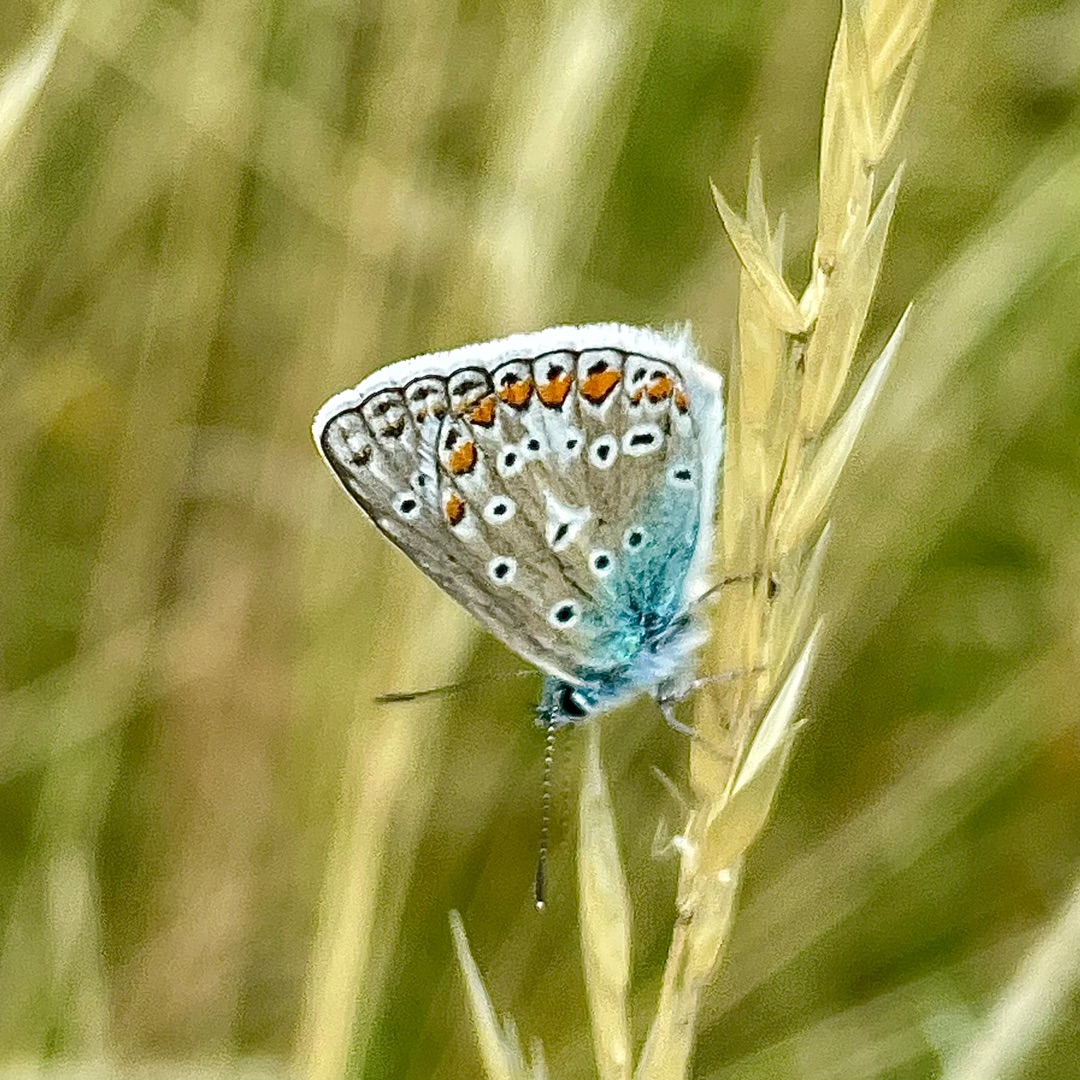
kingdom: Animalia
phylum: Arthropoda
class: Insecta
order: Lepidoptera
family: Lycaenidae
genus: Polyommatus
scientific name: Polyommatus icarus
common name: Almindelig blåfugl
